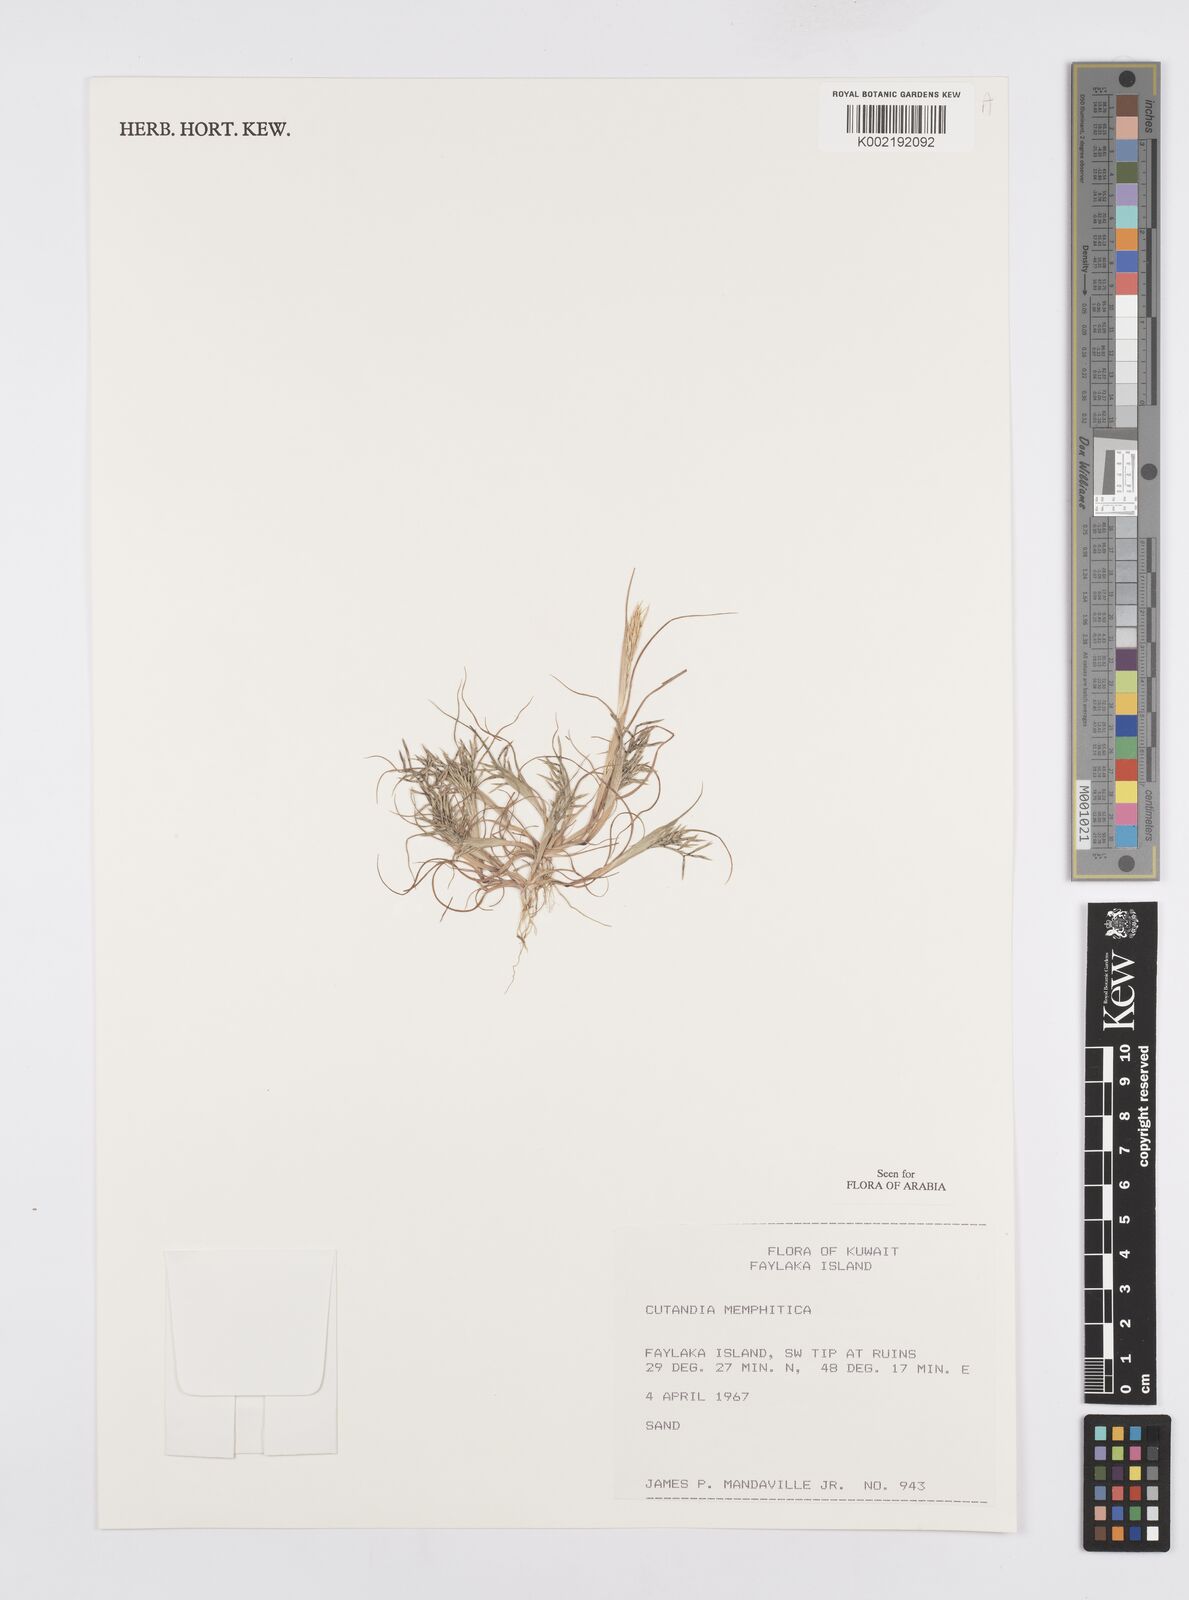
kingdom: Plantae
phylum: Tracheophyta
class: Liliopsida
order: Poales
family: Poaceae
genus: Cutandia
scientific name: Cutandia memphitica
